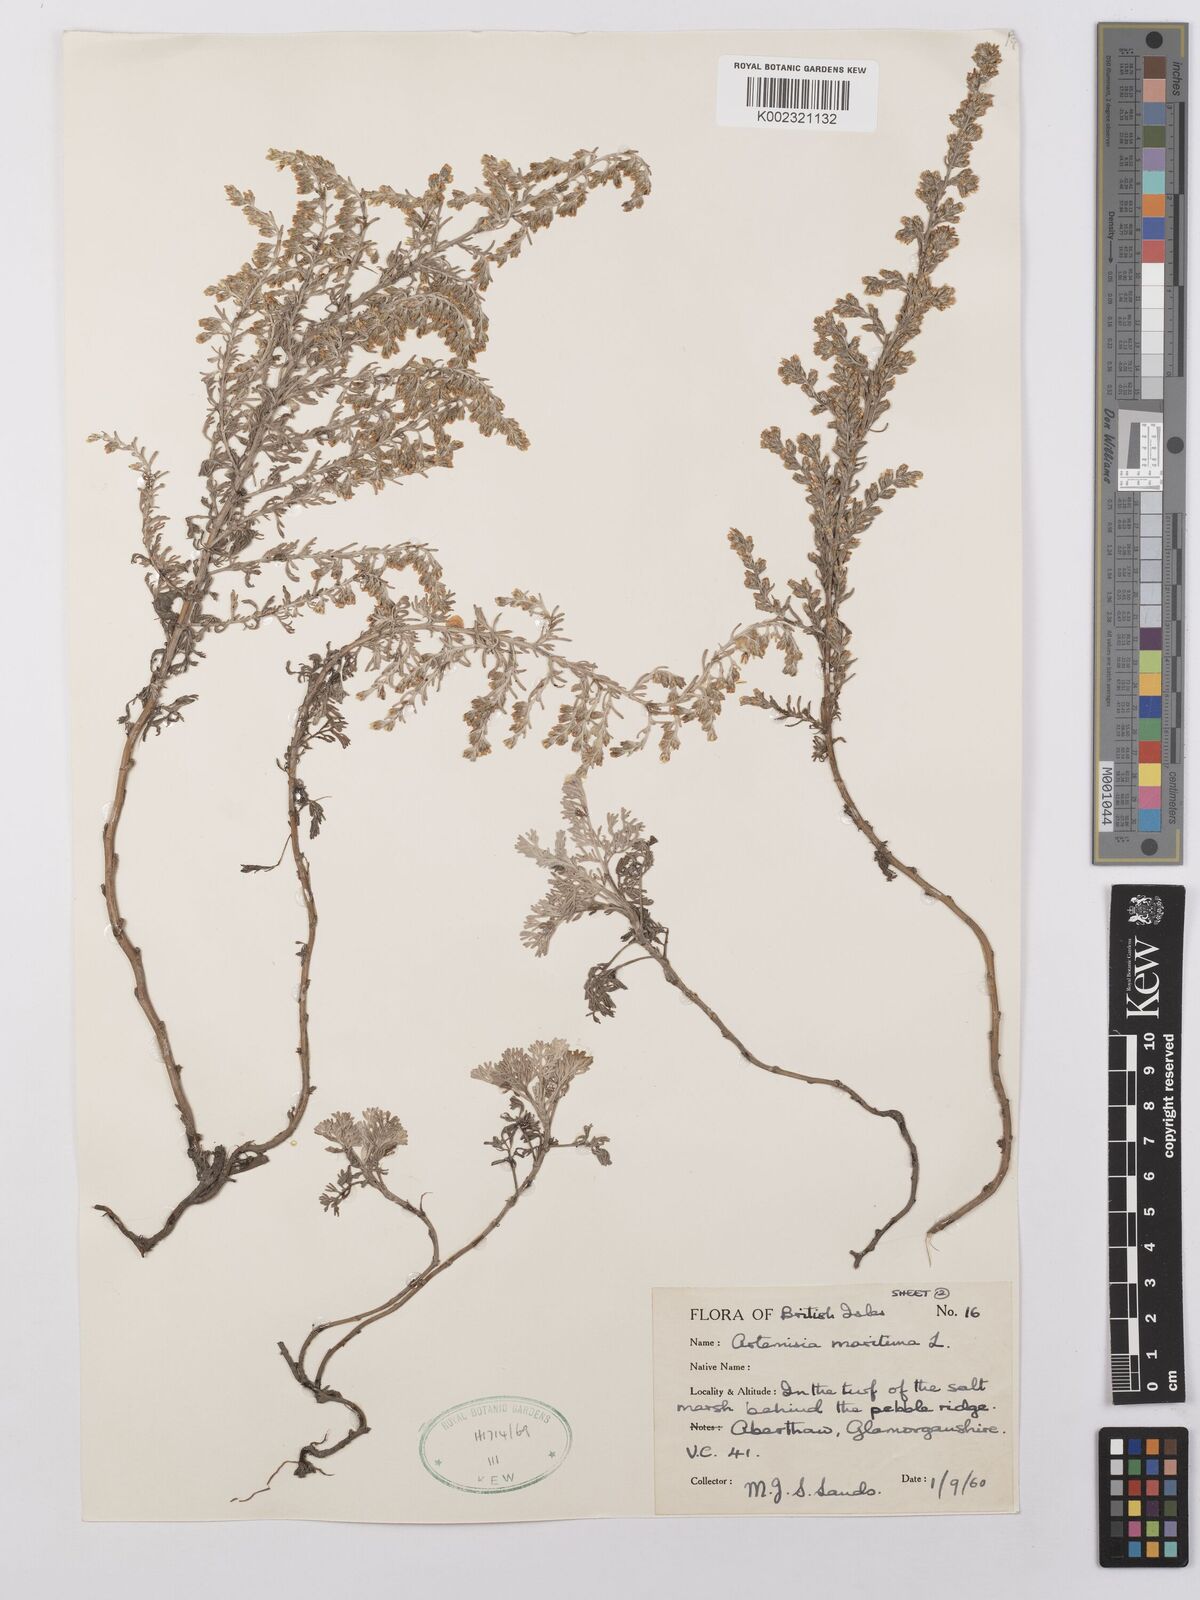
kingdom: Plantae
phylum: Tracheophyta
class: Magnoliopsida
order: Asterales
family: Asteraceae
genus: Artemisia
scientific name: Artemisia maritima
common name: Wormseed
